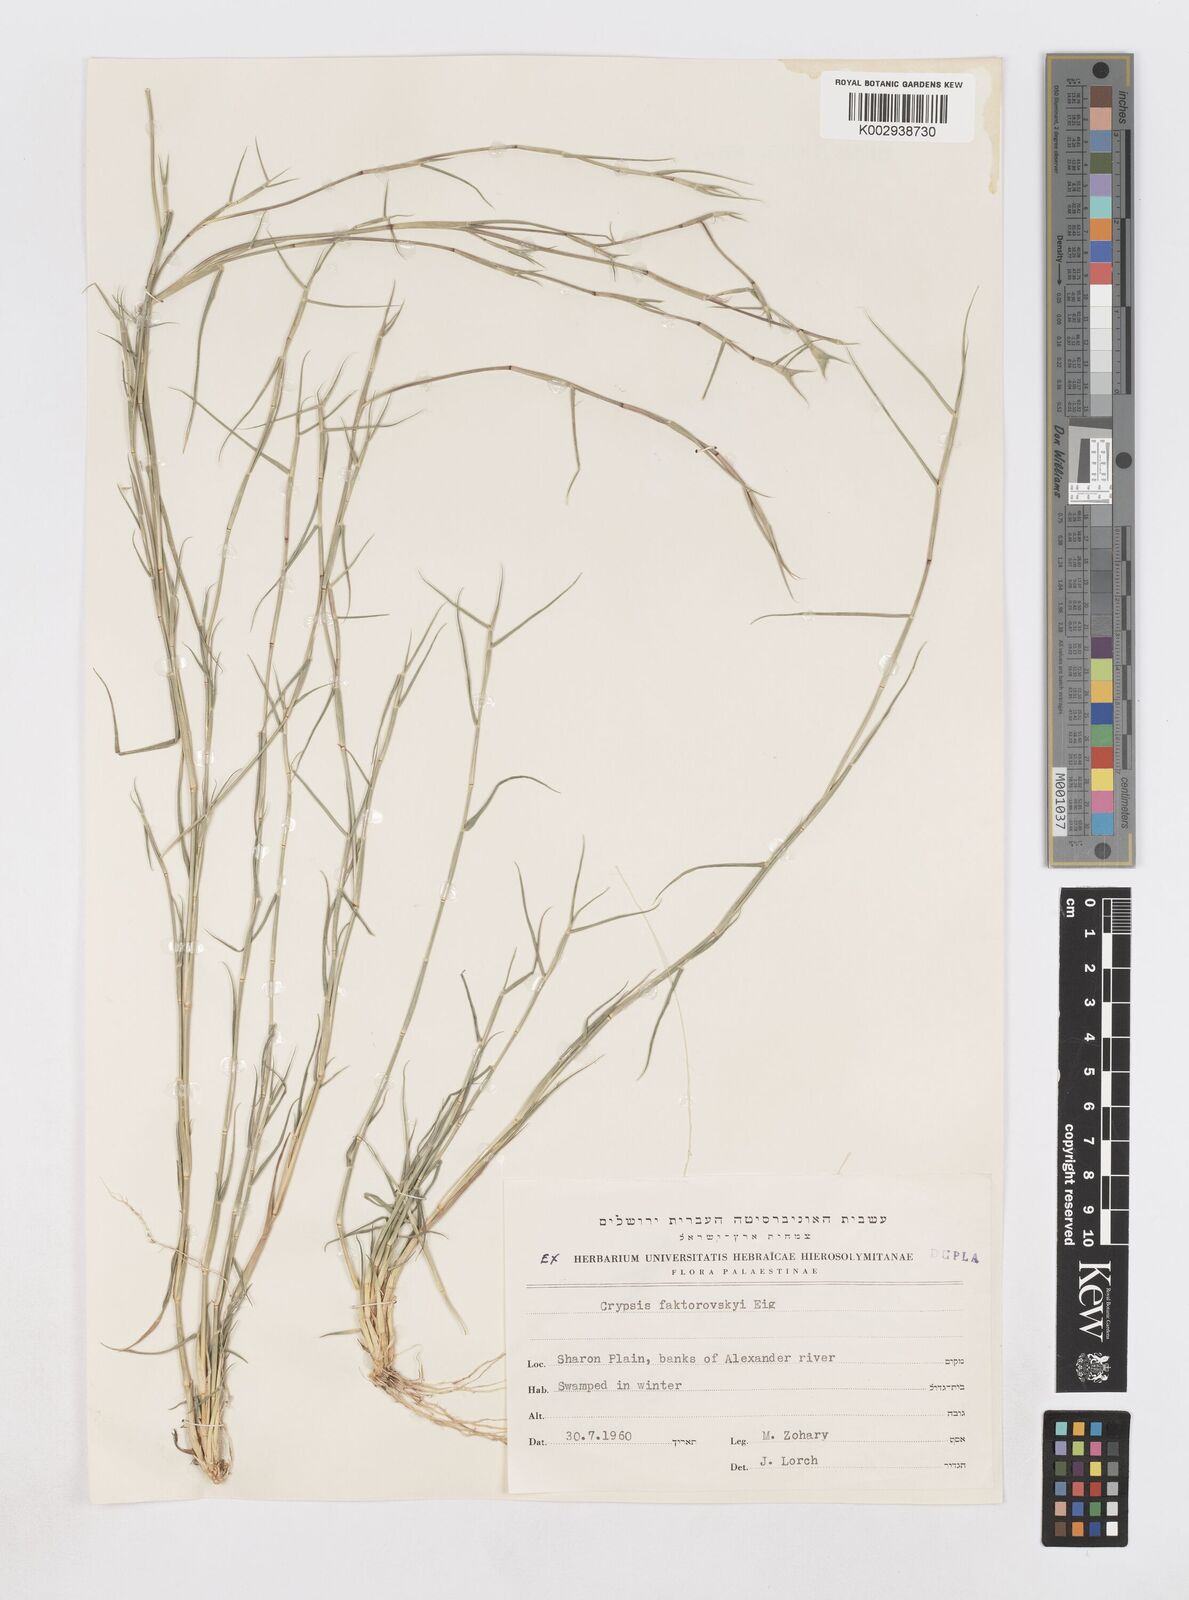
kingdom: Plantae
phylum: Tracheophyta
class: Liliopsida
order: Poales
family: Poaceae
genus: Sporobolus
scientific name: Sporobolus factorovskyi
